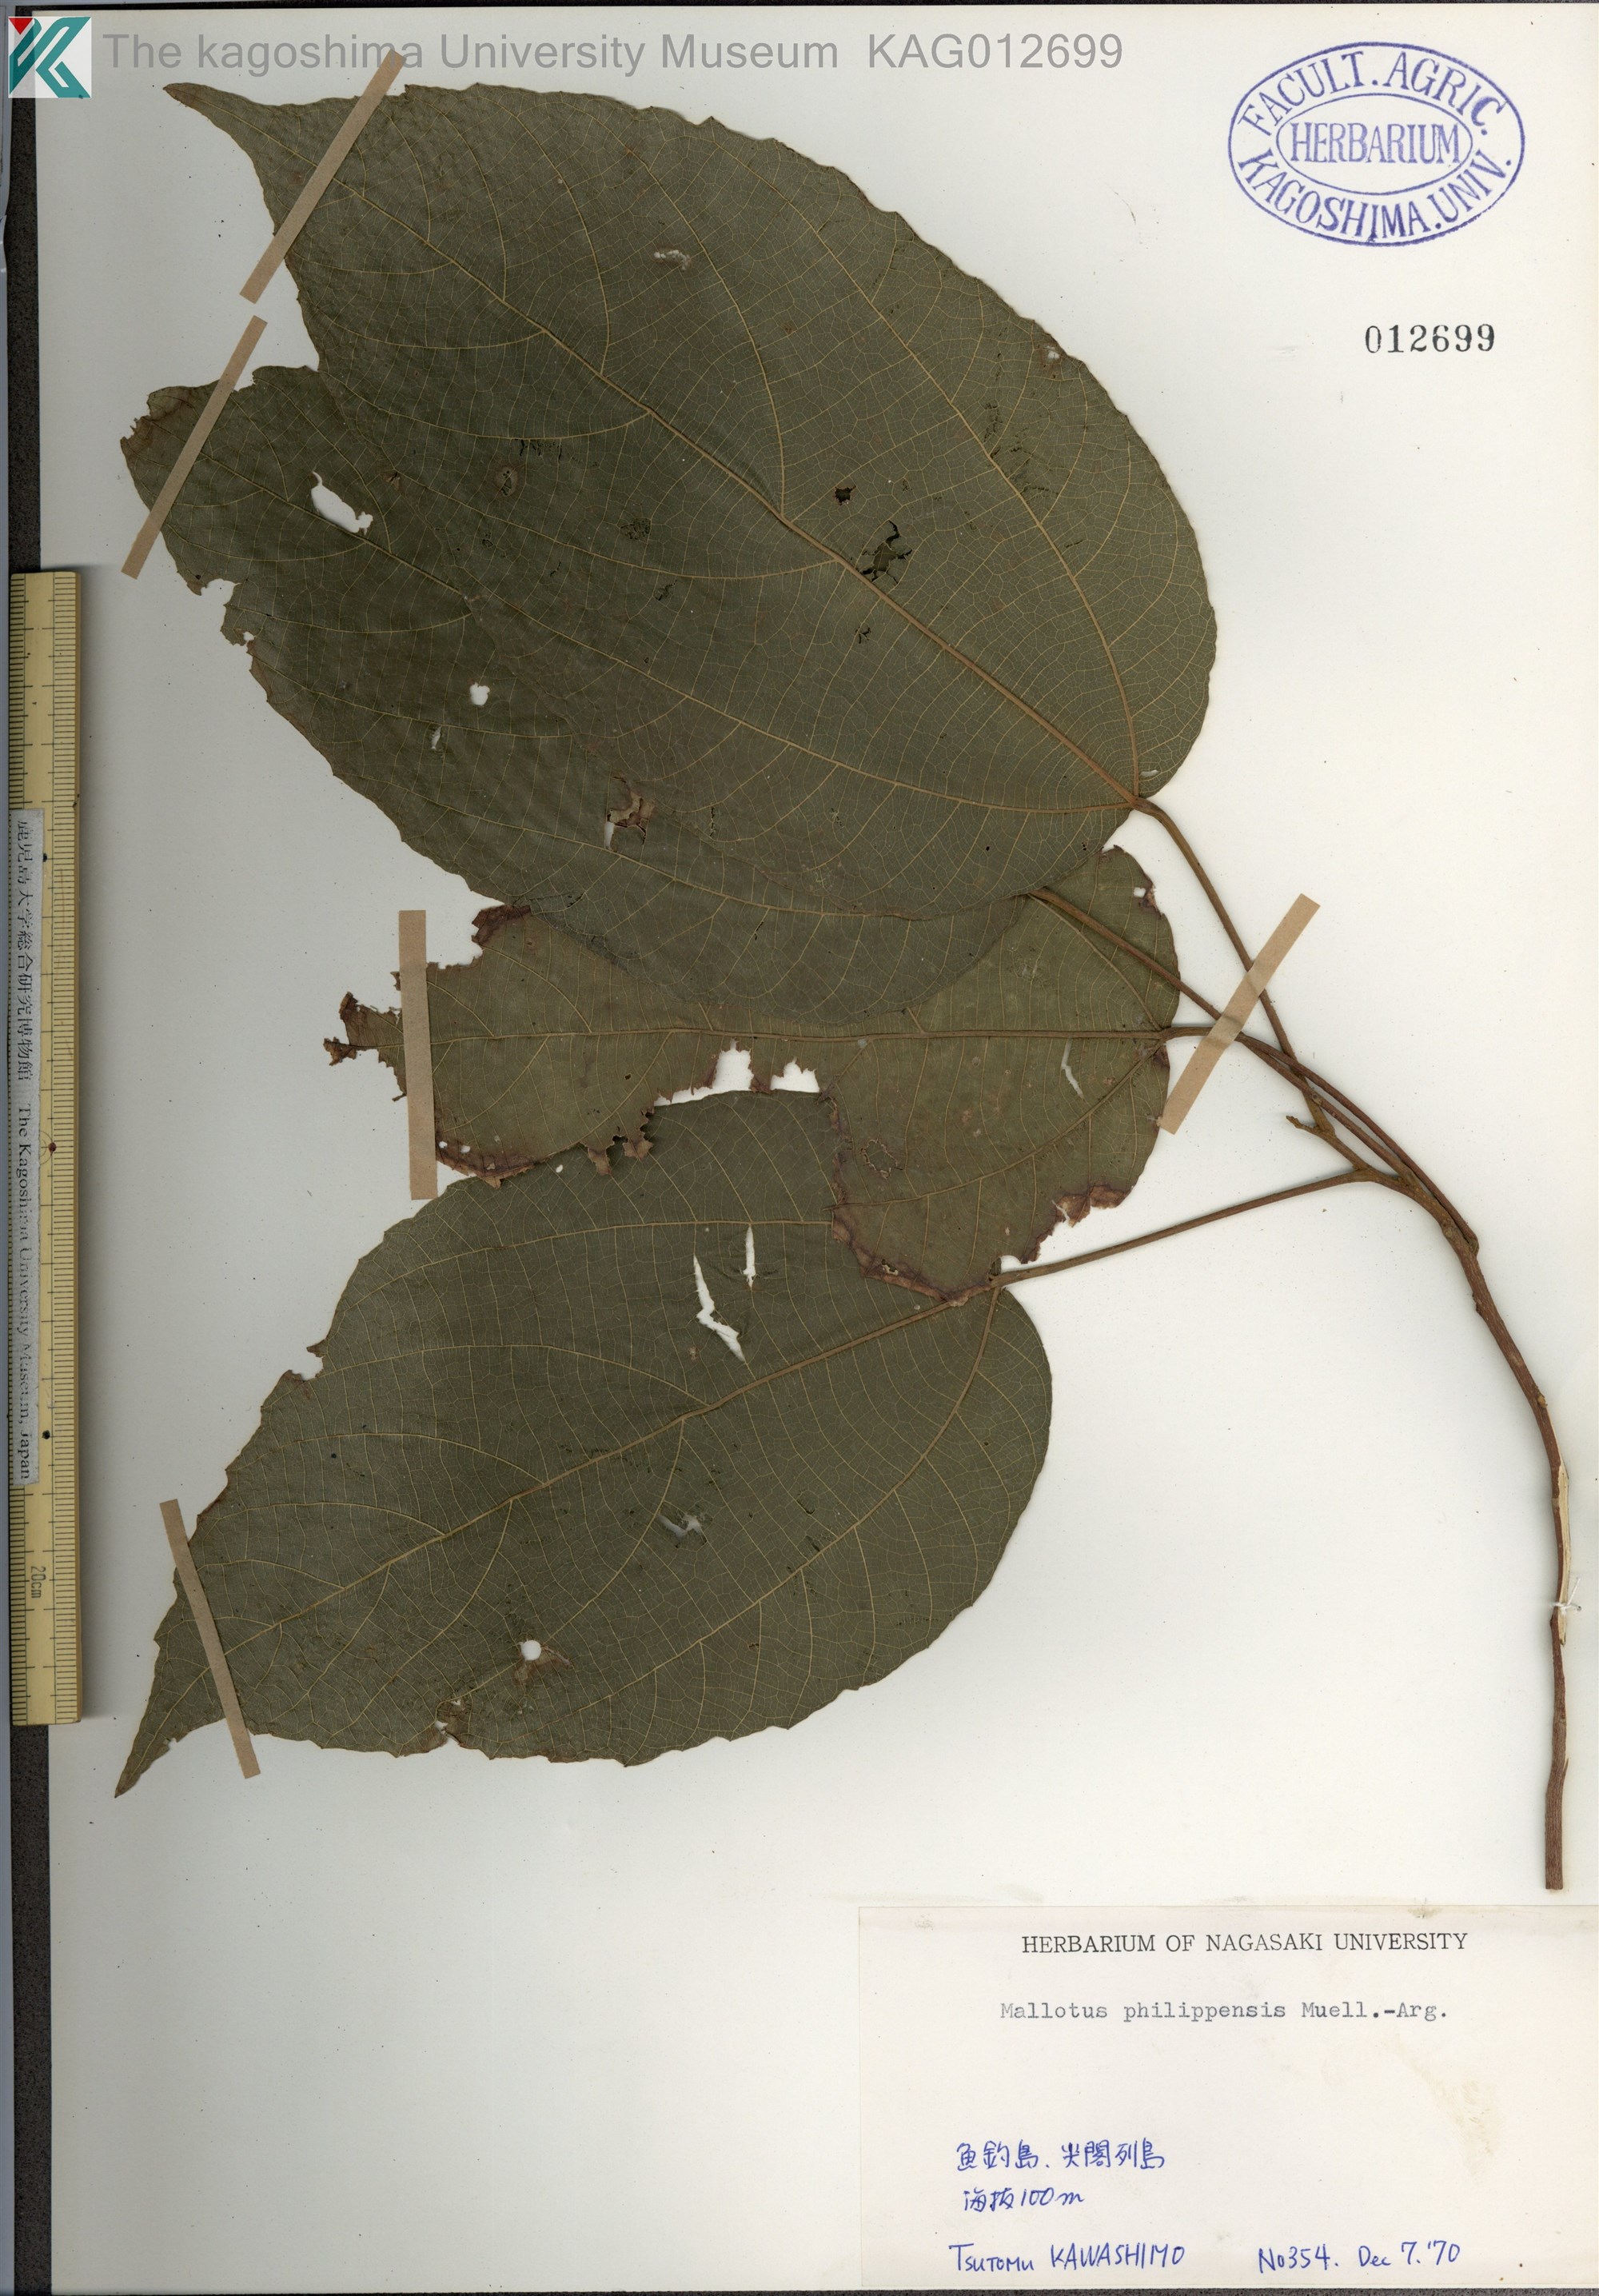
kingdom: Plantae
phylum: Tracheophyta
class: Magnoliopsida
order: Malpighiales
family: Euphorbiaceae
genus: Mallotus
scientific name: Mallotus philippensis
